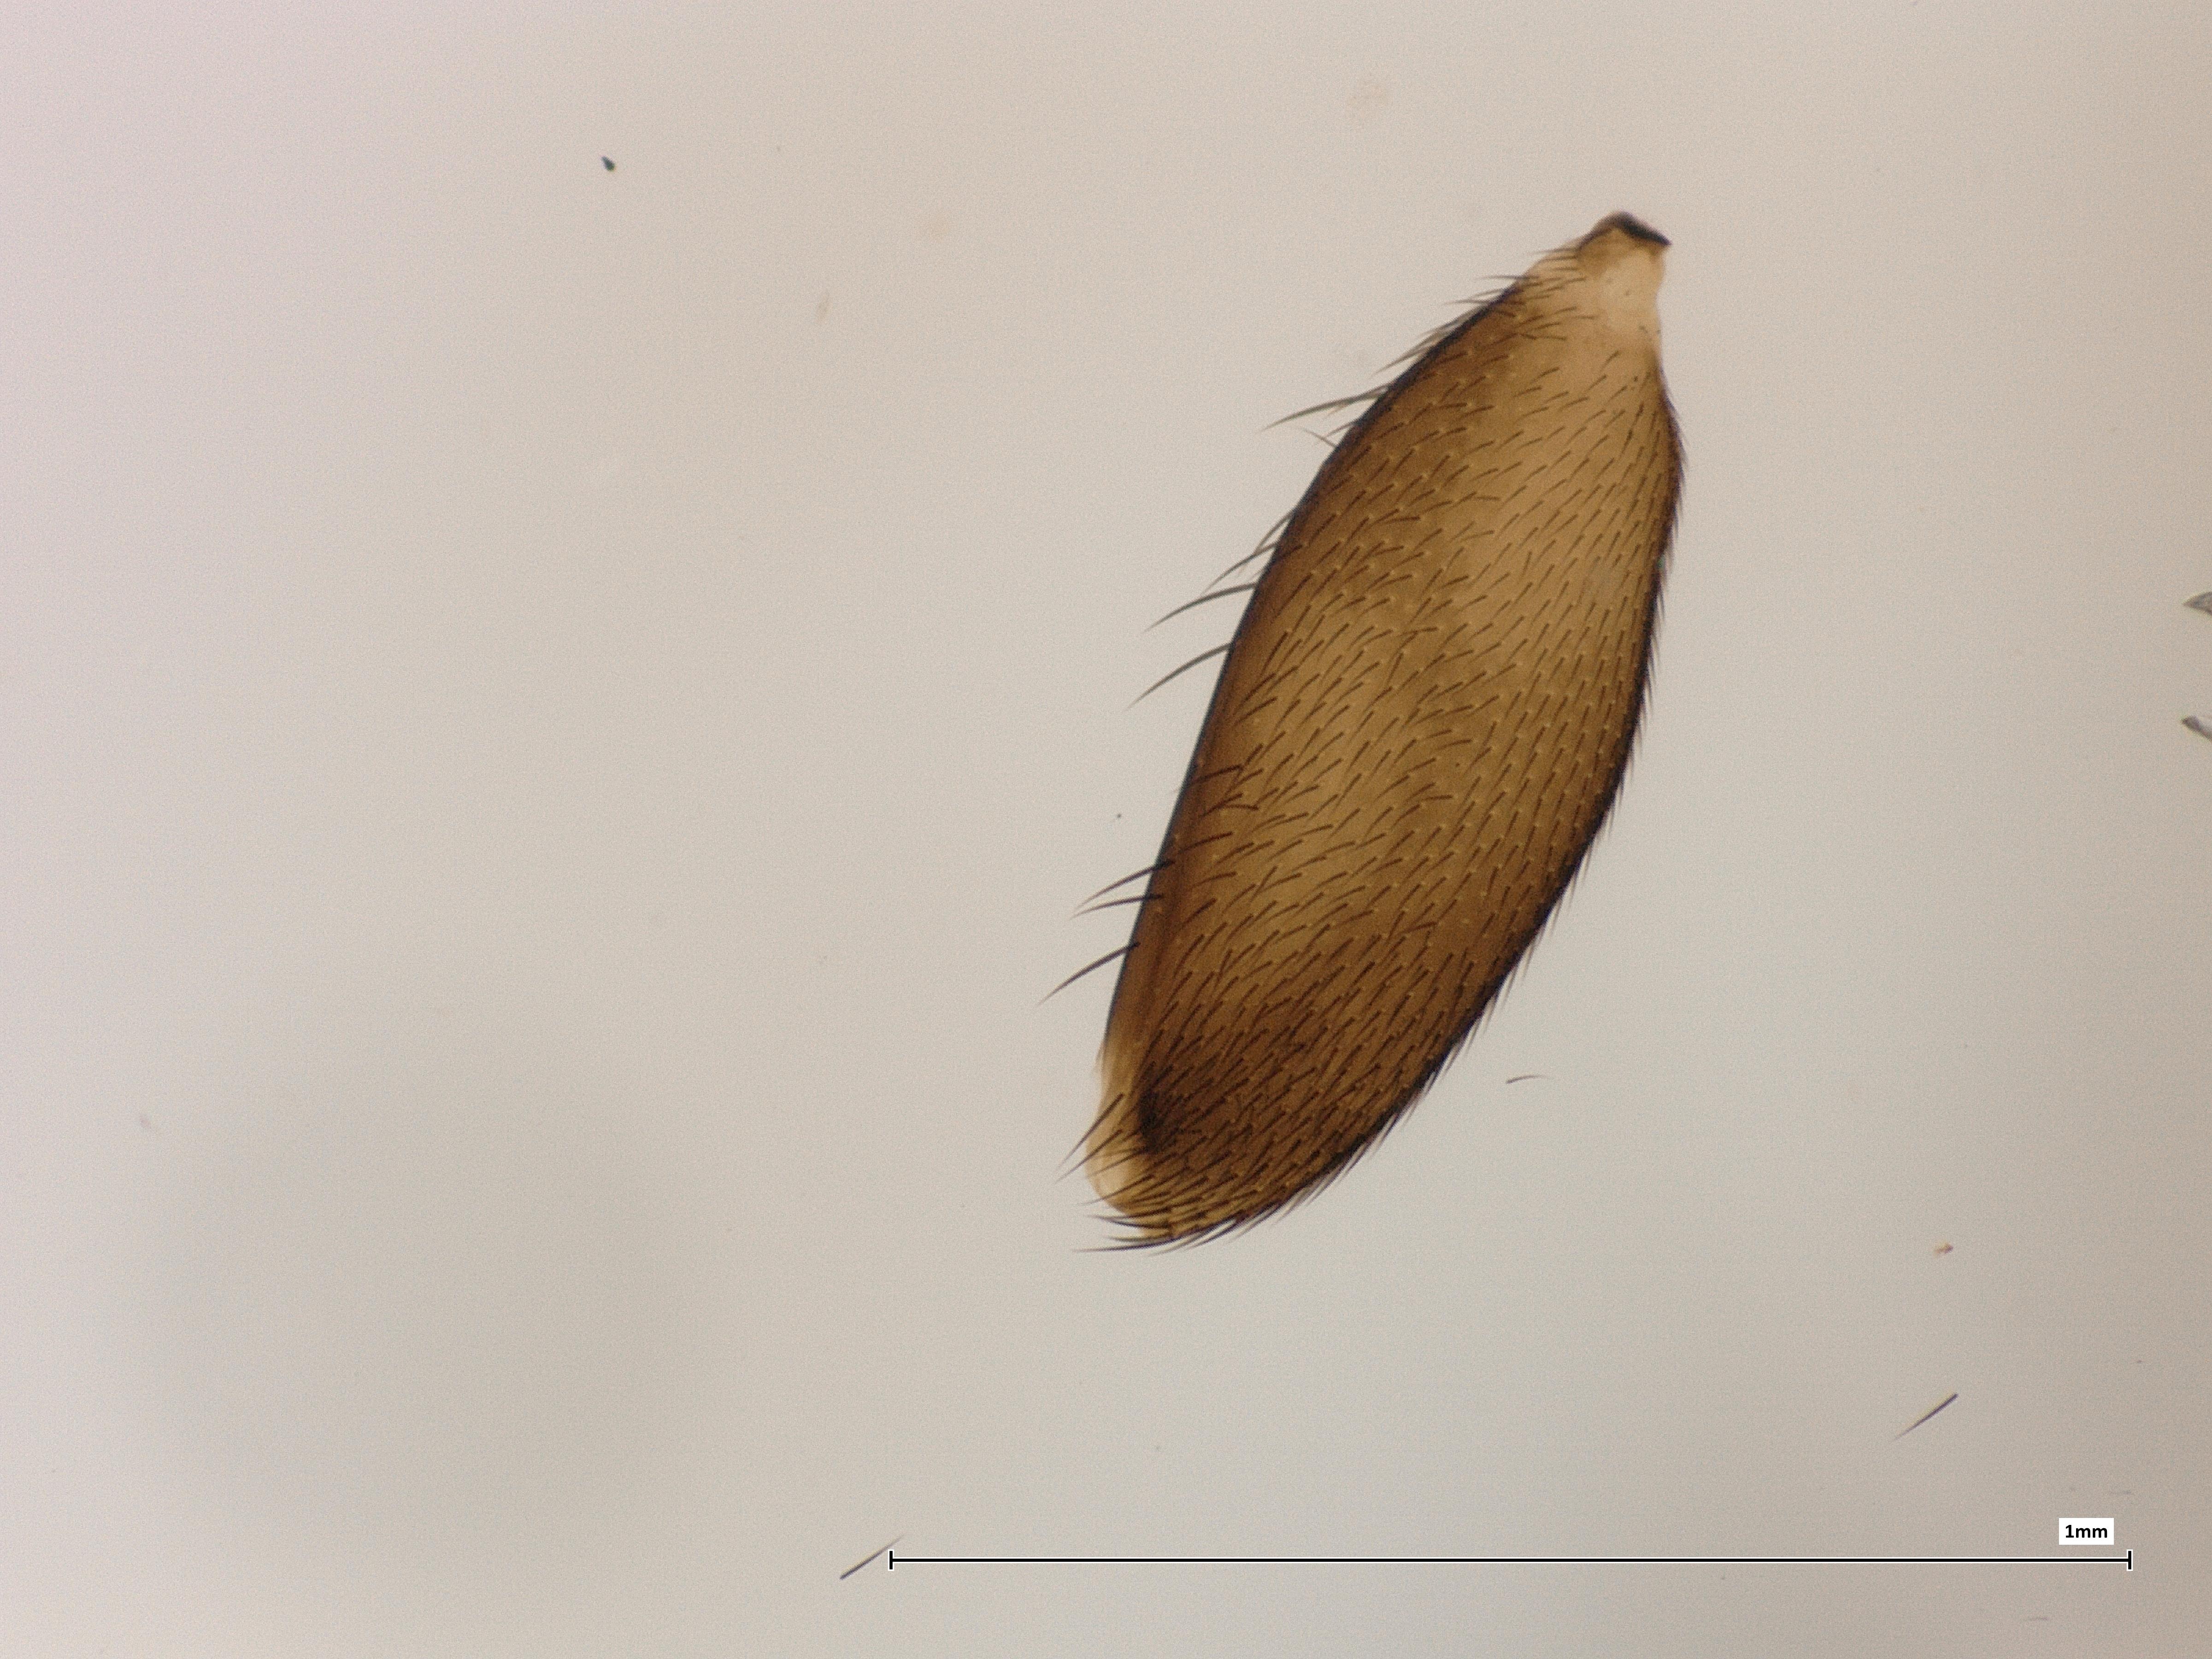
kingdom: Animalia
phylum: Arthropoda
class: Insecta
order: Diptera
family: Phoridae
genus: Megaselia
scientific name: Megaselia spinigera
